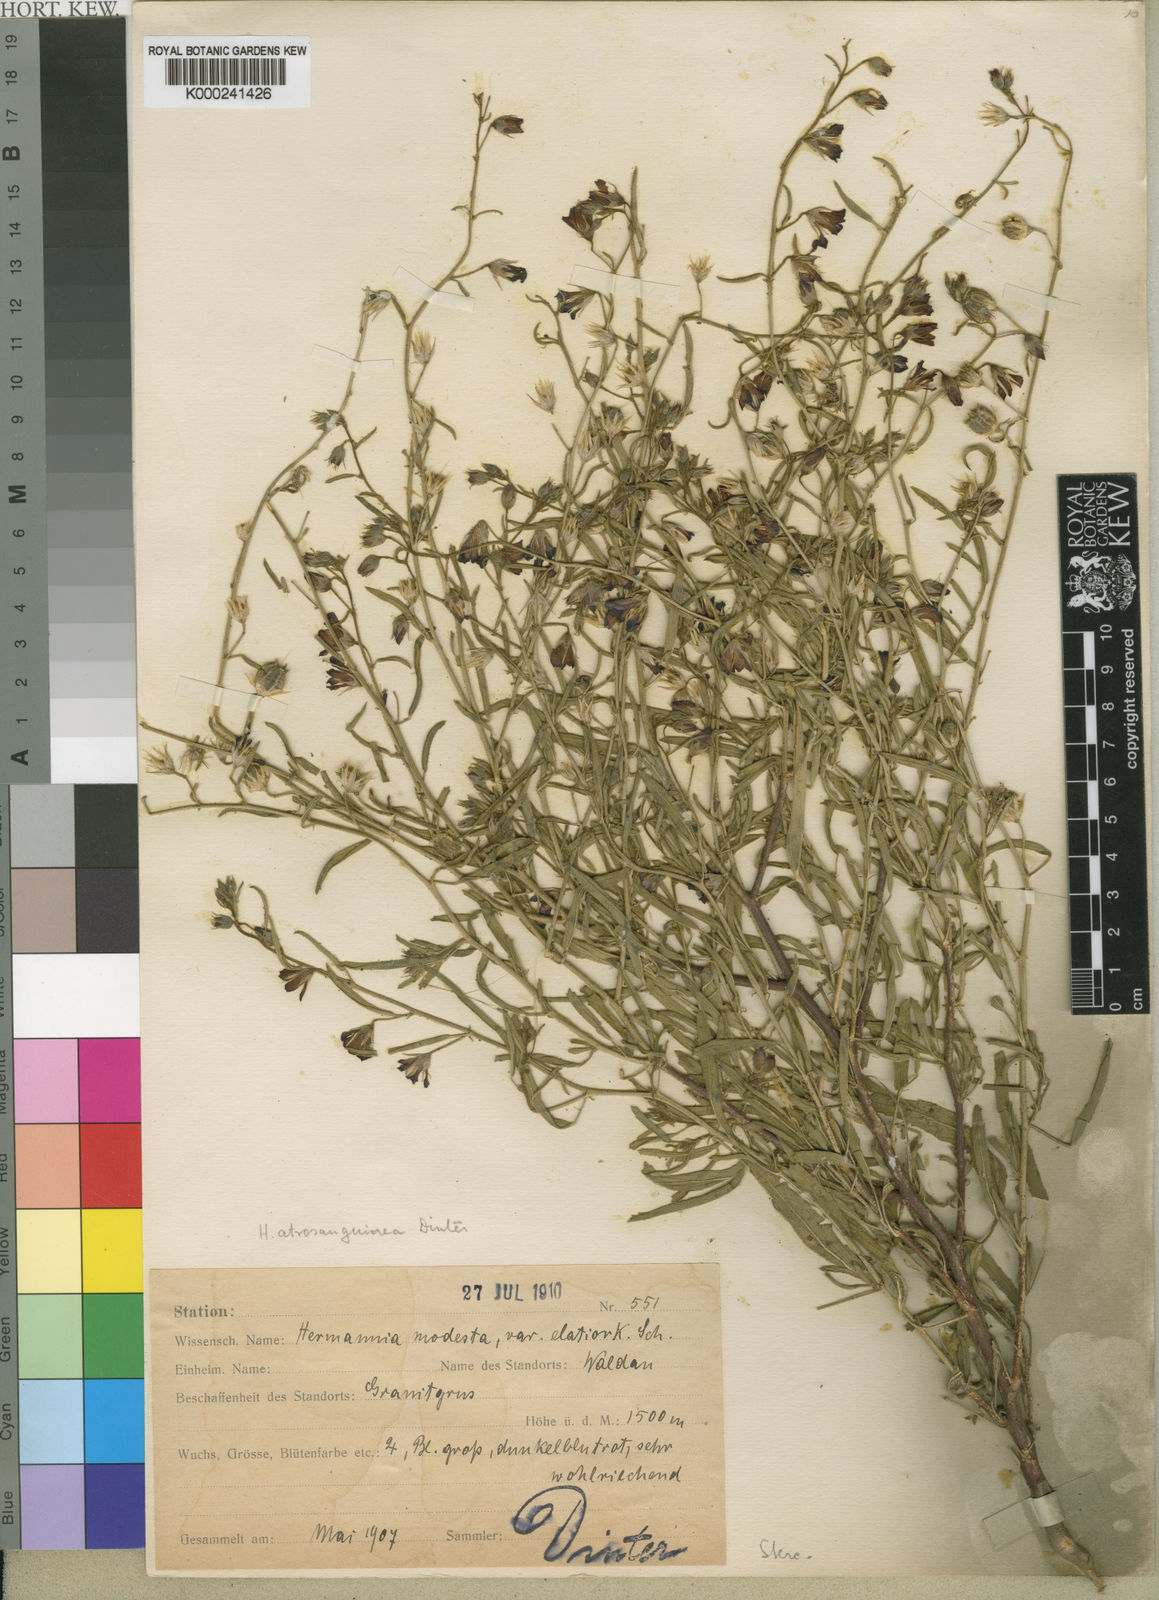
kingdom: Plantae
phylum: Tracheophyta
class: Magnoliopsida
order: Malvales
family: Malvaceae
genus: Hermannia
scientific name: Hermannia modesta
